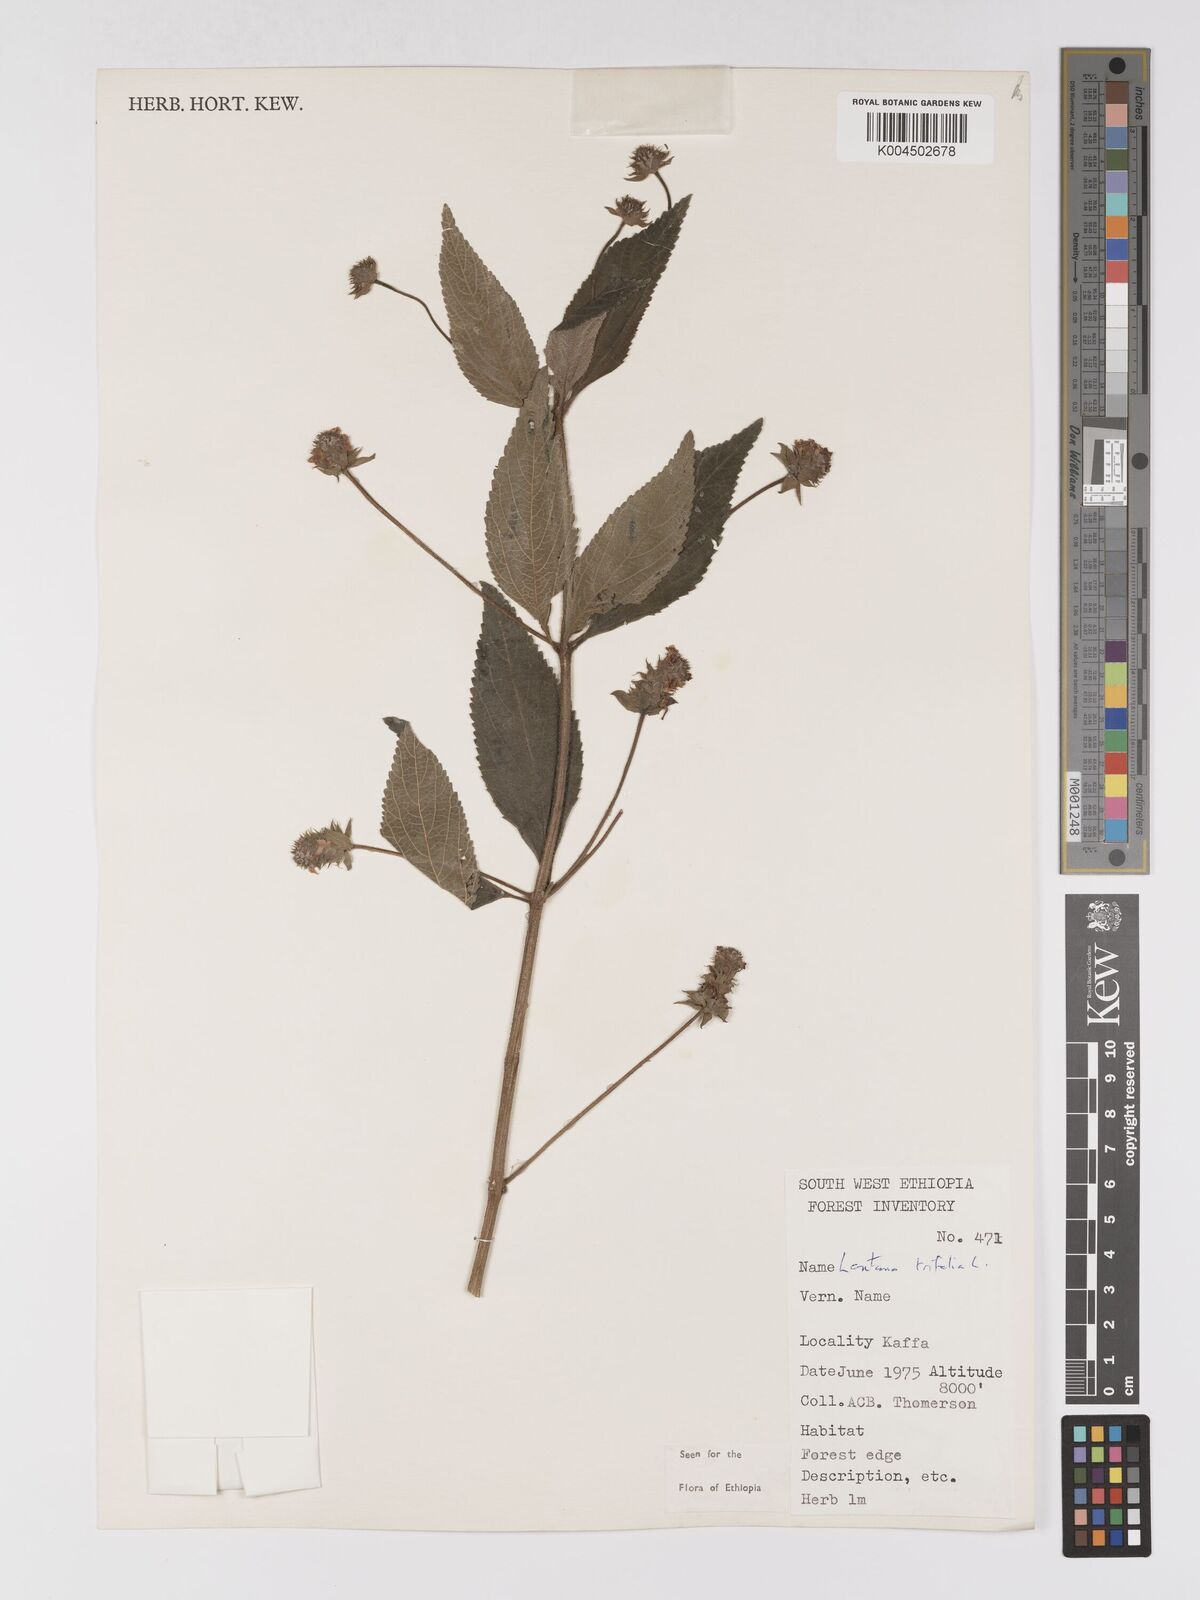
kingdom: Plantae
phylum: Tracheophyta
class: Magnoliopsida
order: Lamiales
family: Verbenaceae
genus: Lantana
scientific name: Lantana trifolia
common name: Sweet-sage
